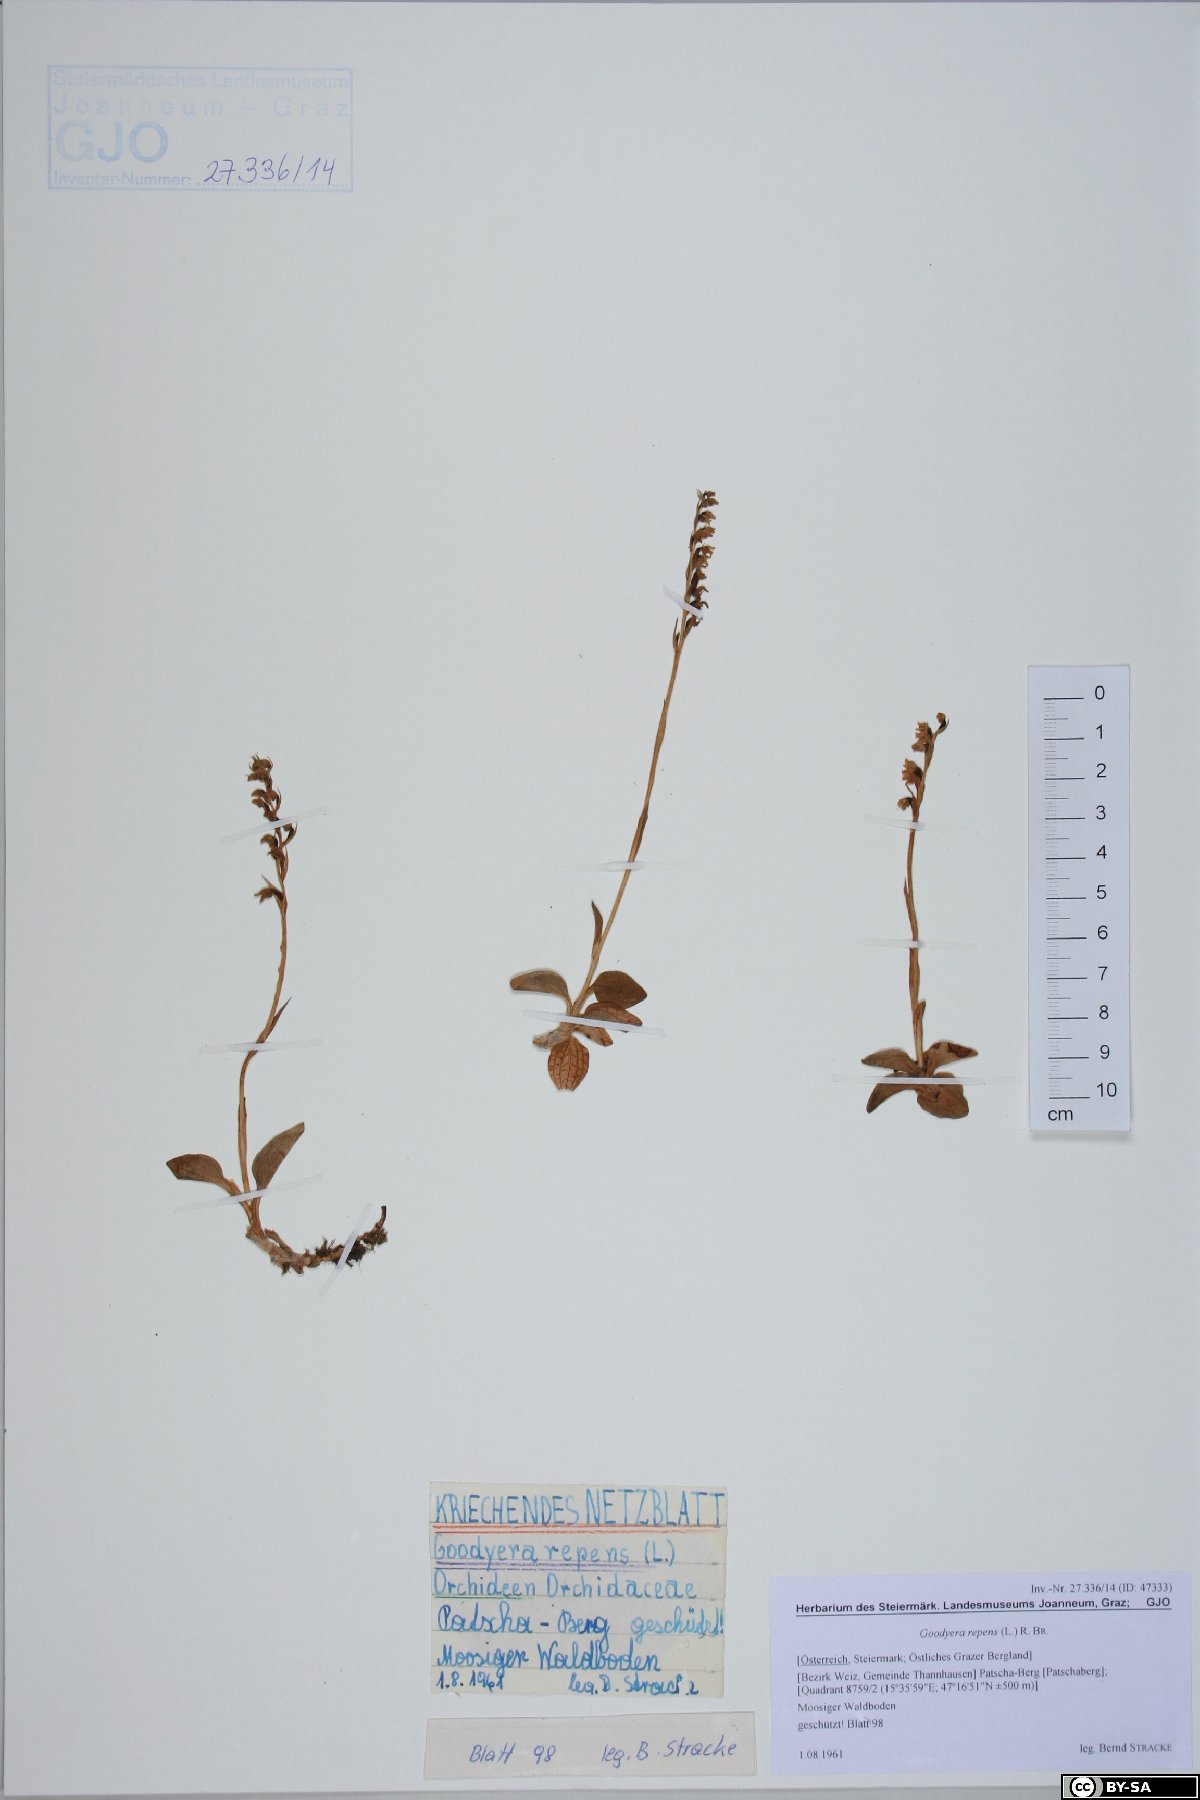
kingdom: Plantae
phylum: Tracheophyta
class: Liliopsida
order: Asparagales
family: Orchidaceae
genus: Goodyera
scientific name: Goodyera repens
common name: Creeping lady's-tresses
